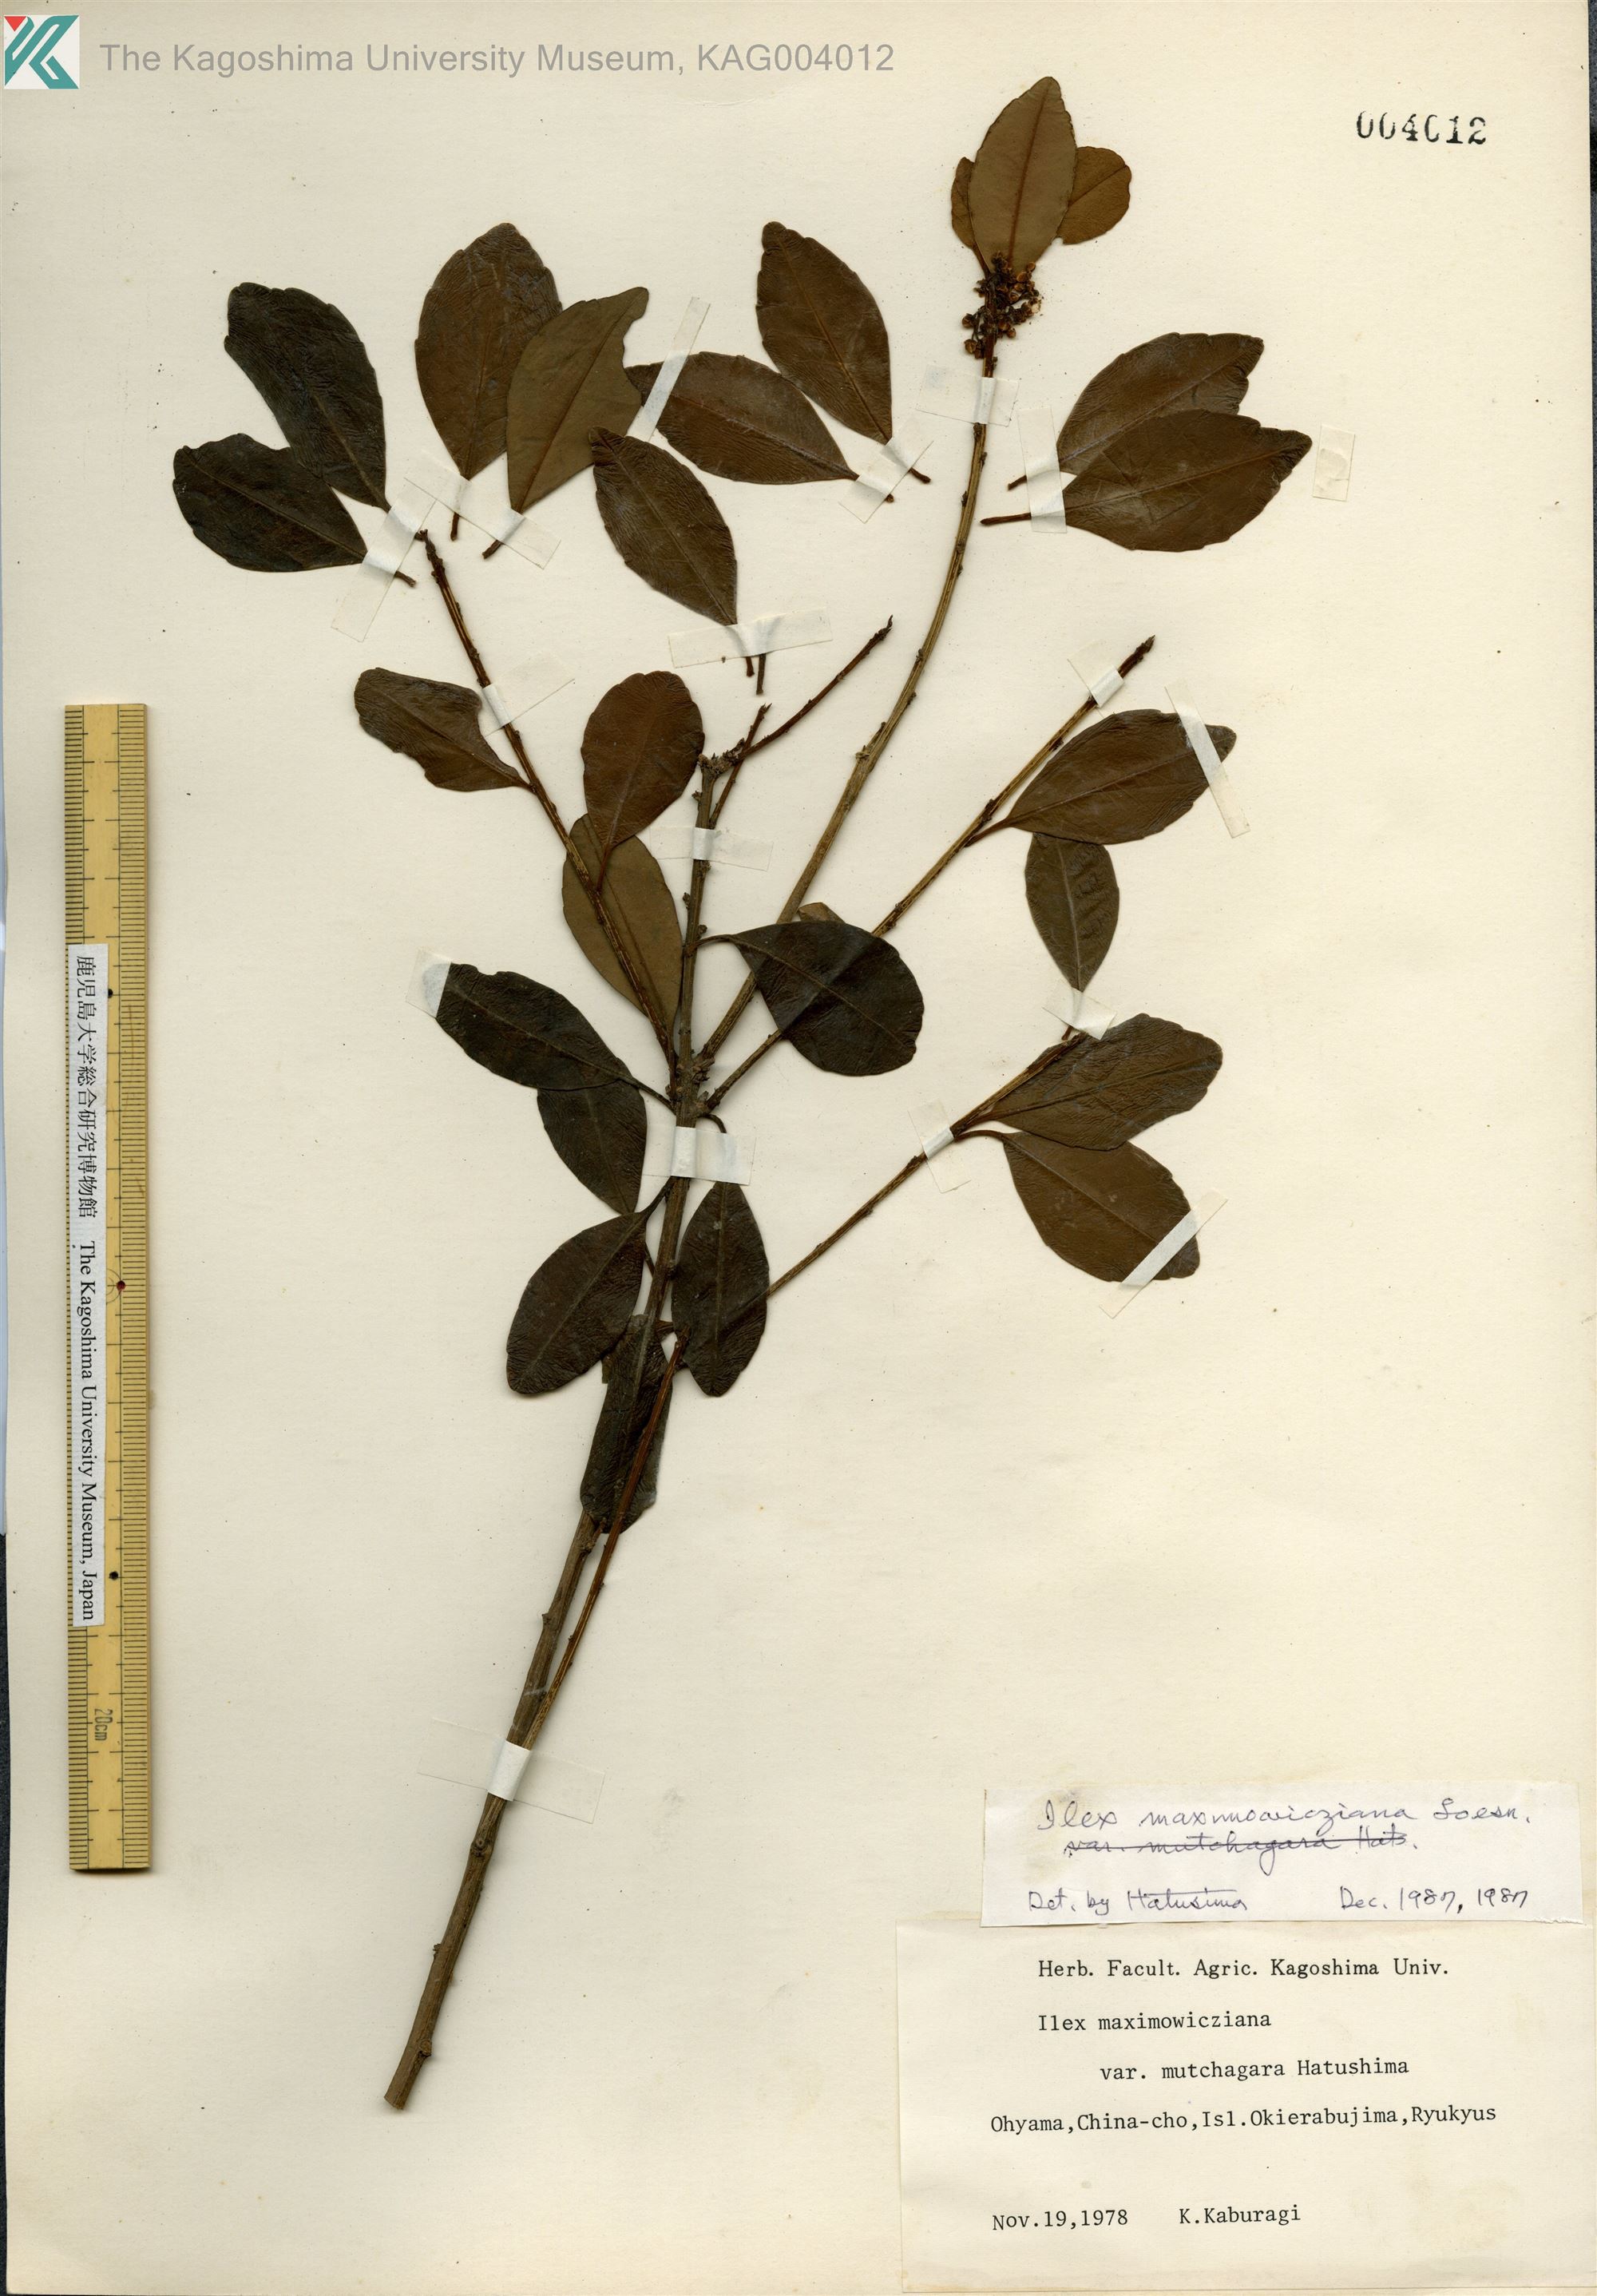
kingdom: Plantae
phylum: Tracheophyta
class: Magnoliopsida
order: Aquifoliales
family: Aquifoliaceae
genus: Ilex
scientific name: Ilex maximowicziana
